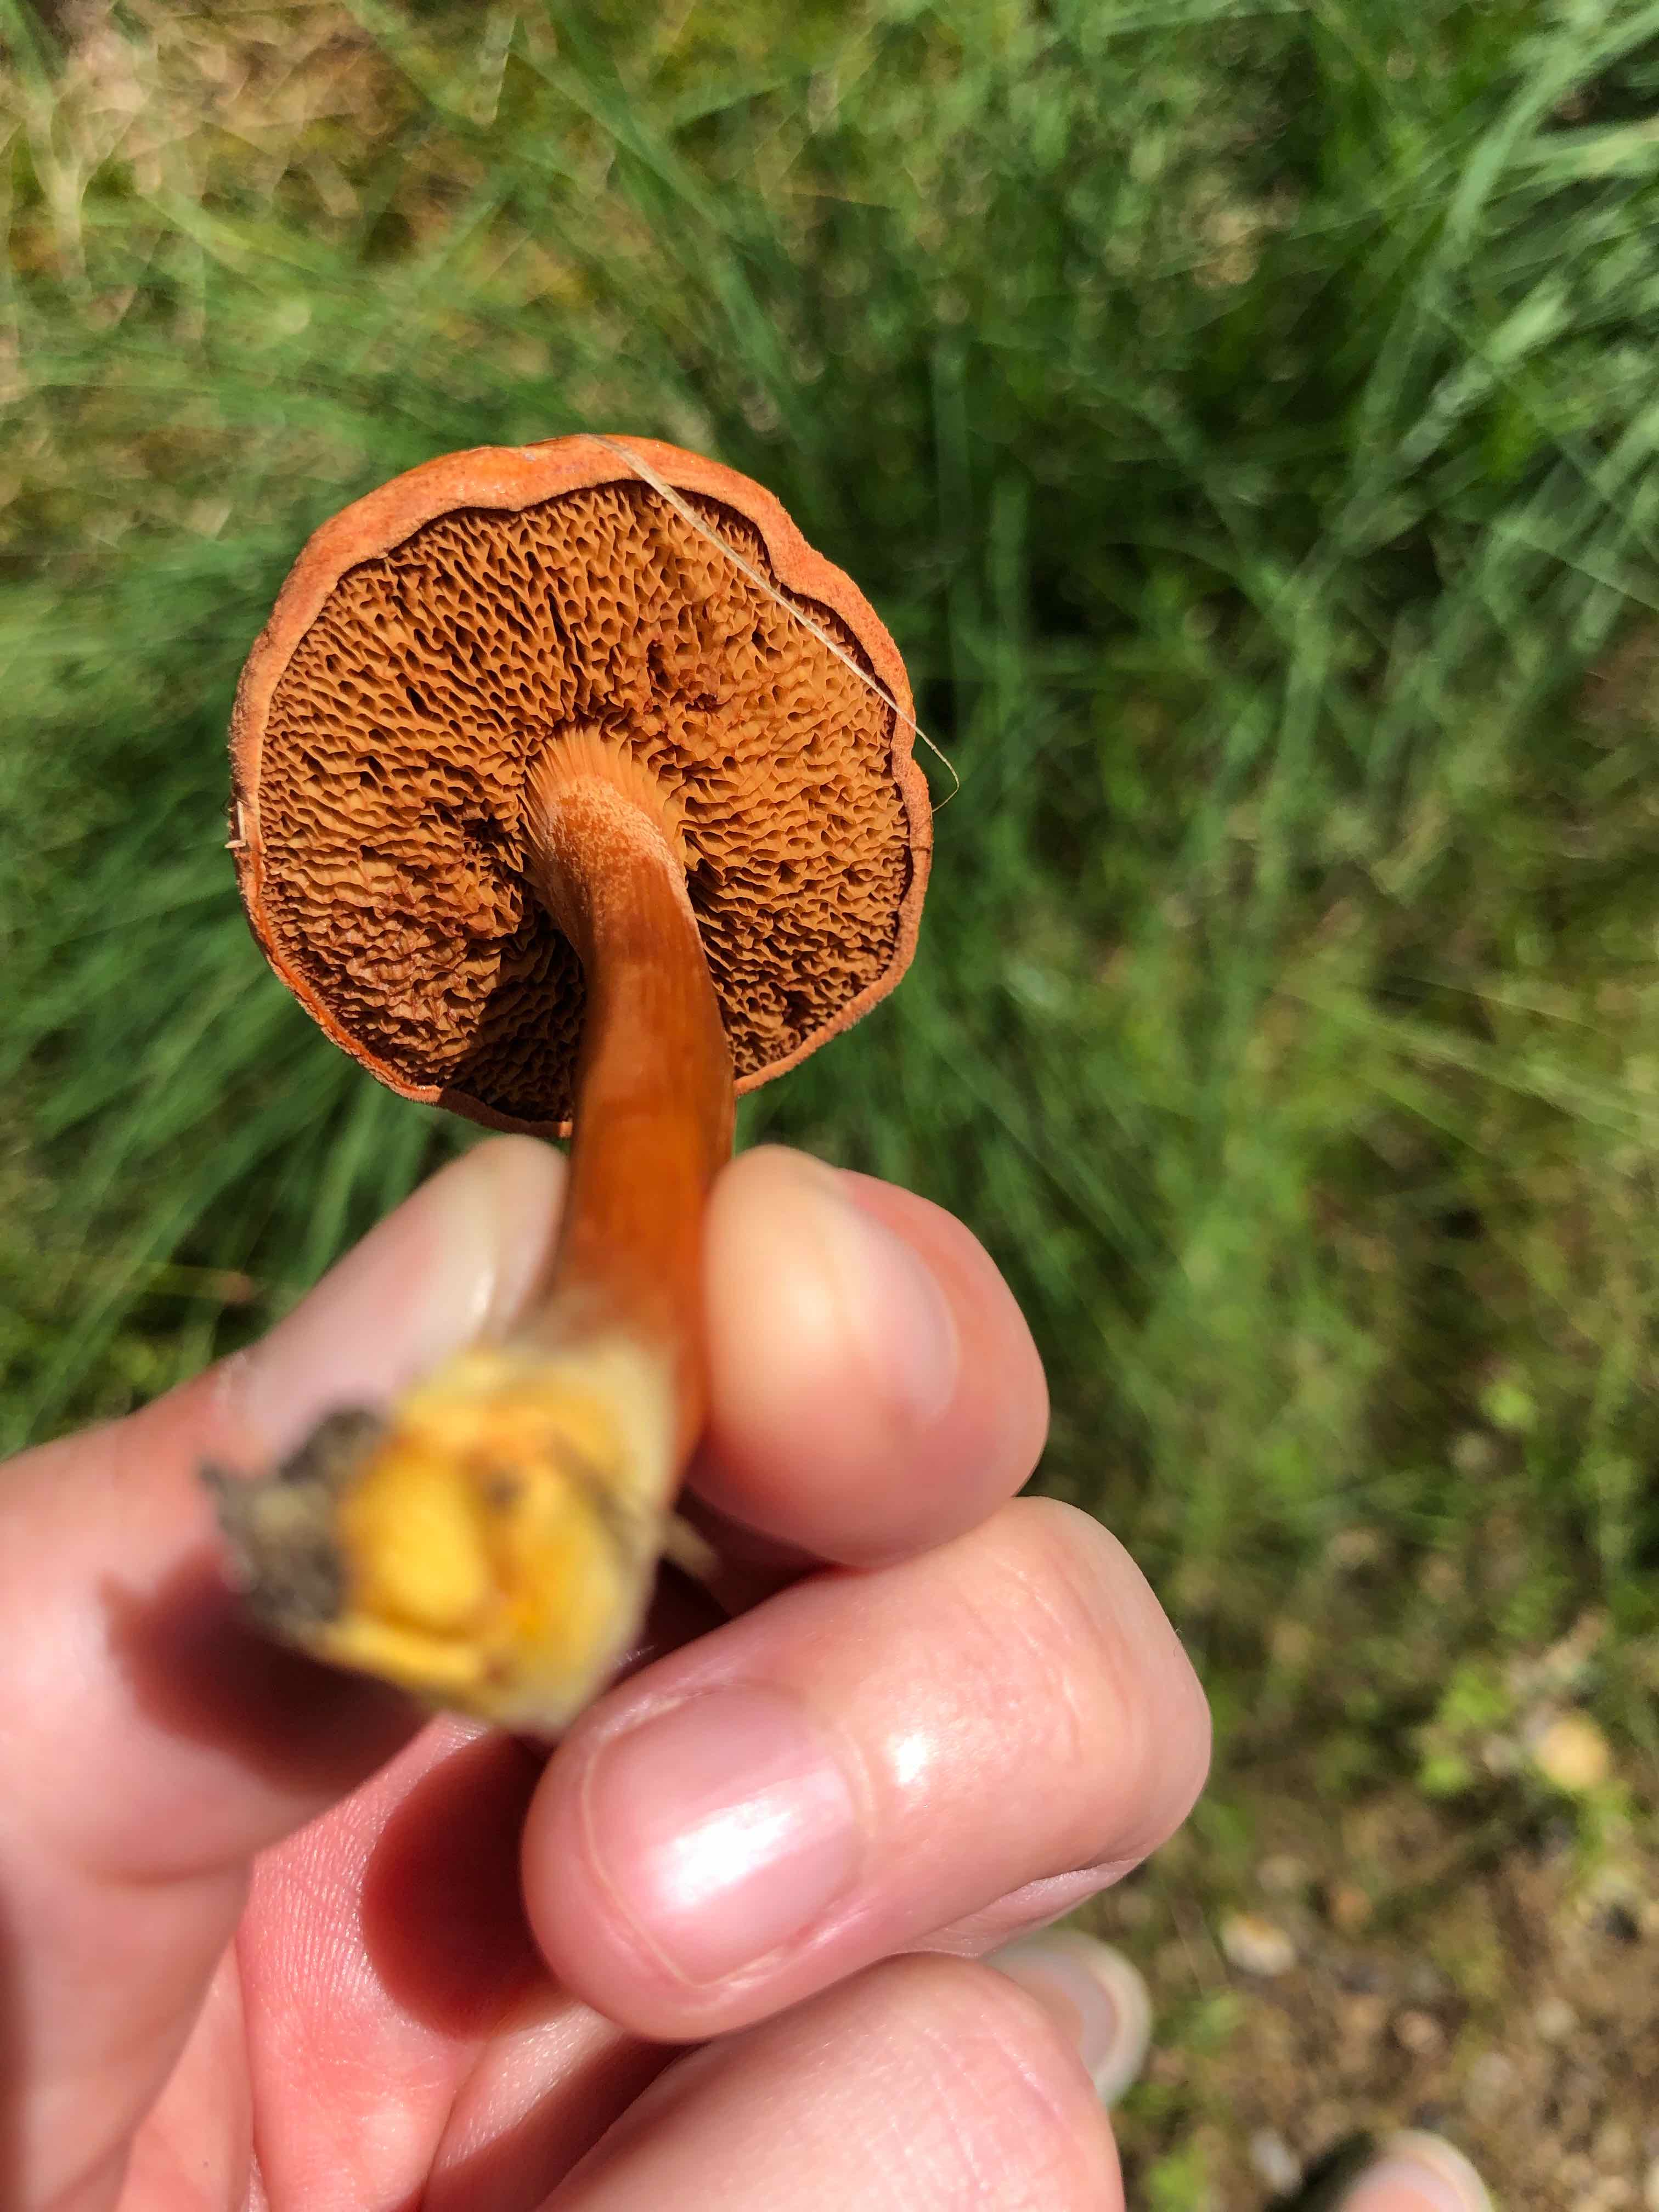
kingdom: Fungi
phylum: Basidiomycota
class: Agaricomycetes
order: Boletales
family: Boletaceae
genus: Chalciporus
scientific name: Chalciporus piperatus
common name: peberrørhat
